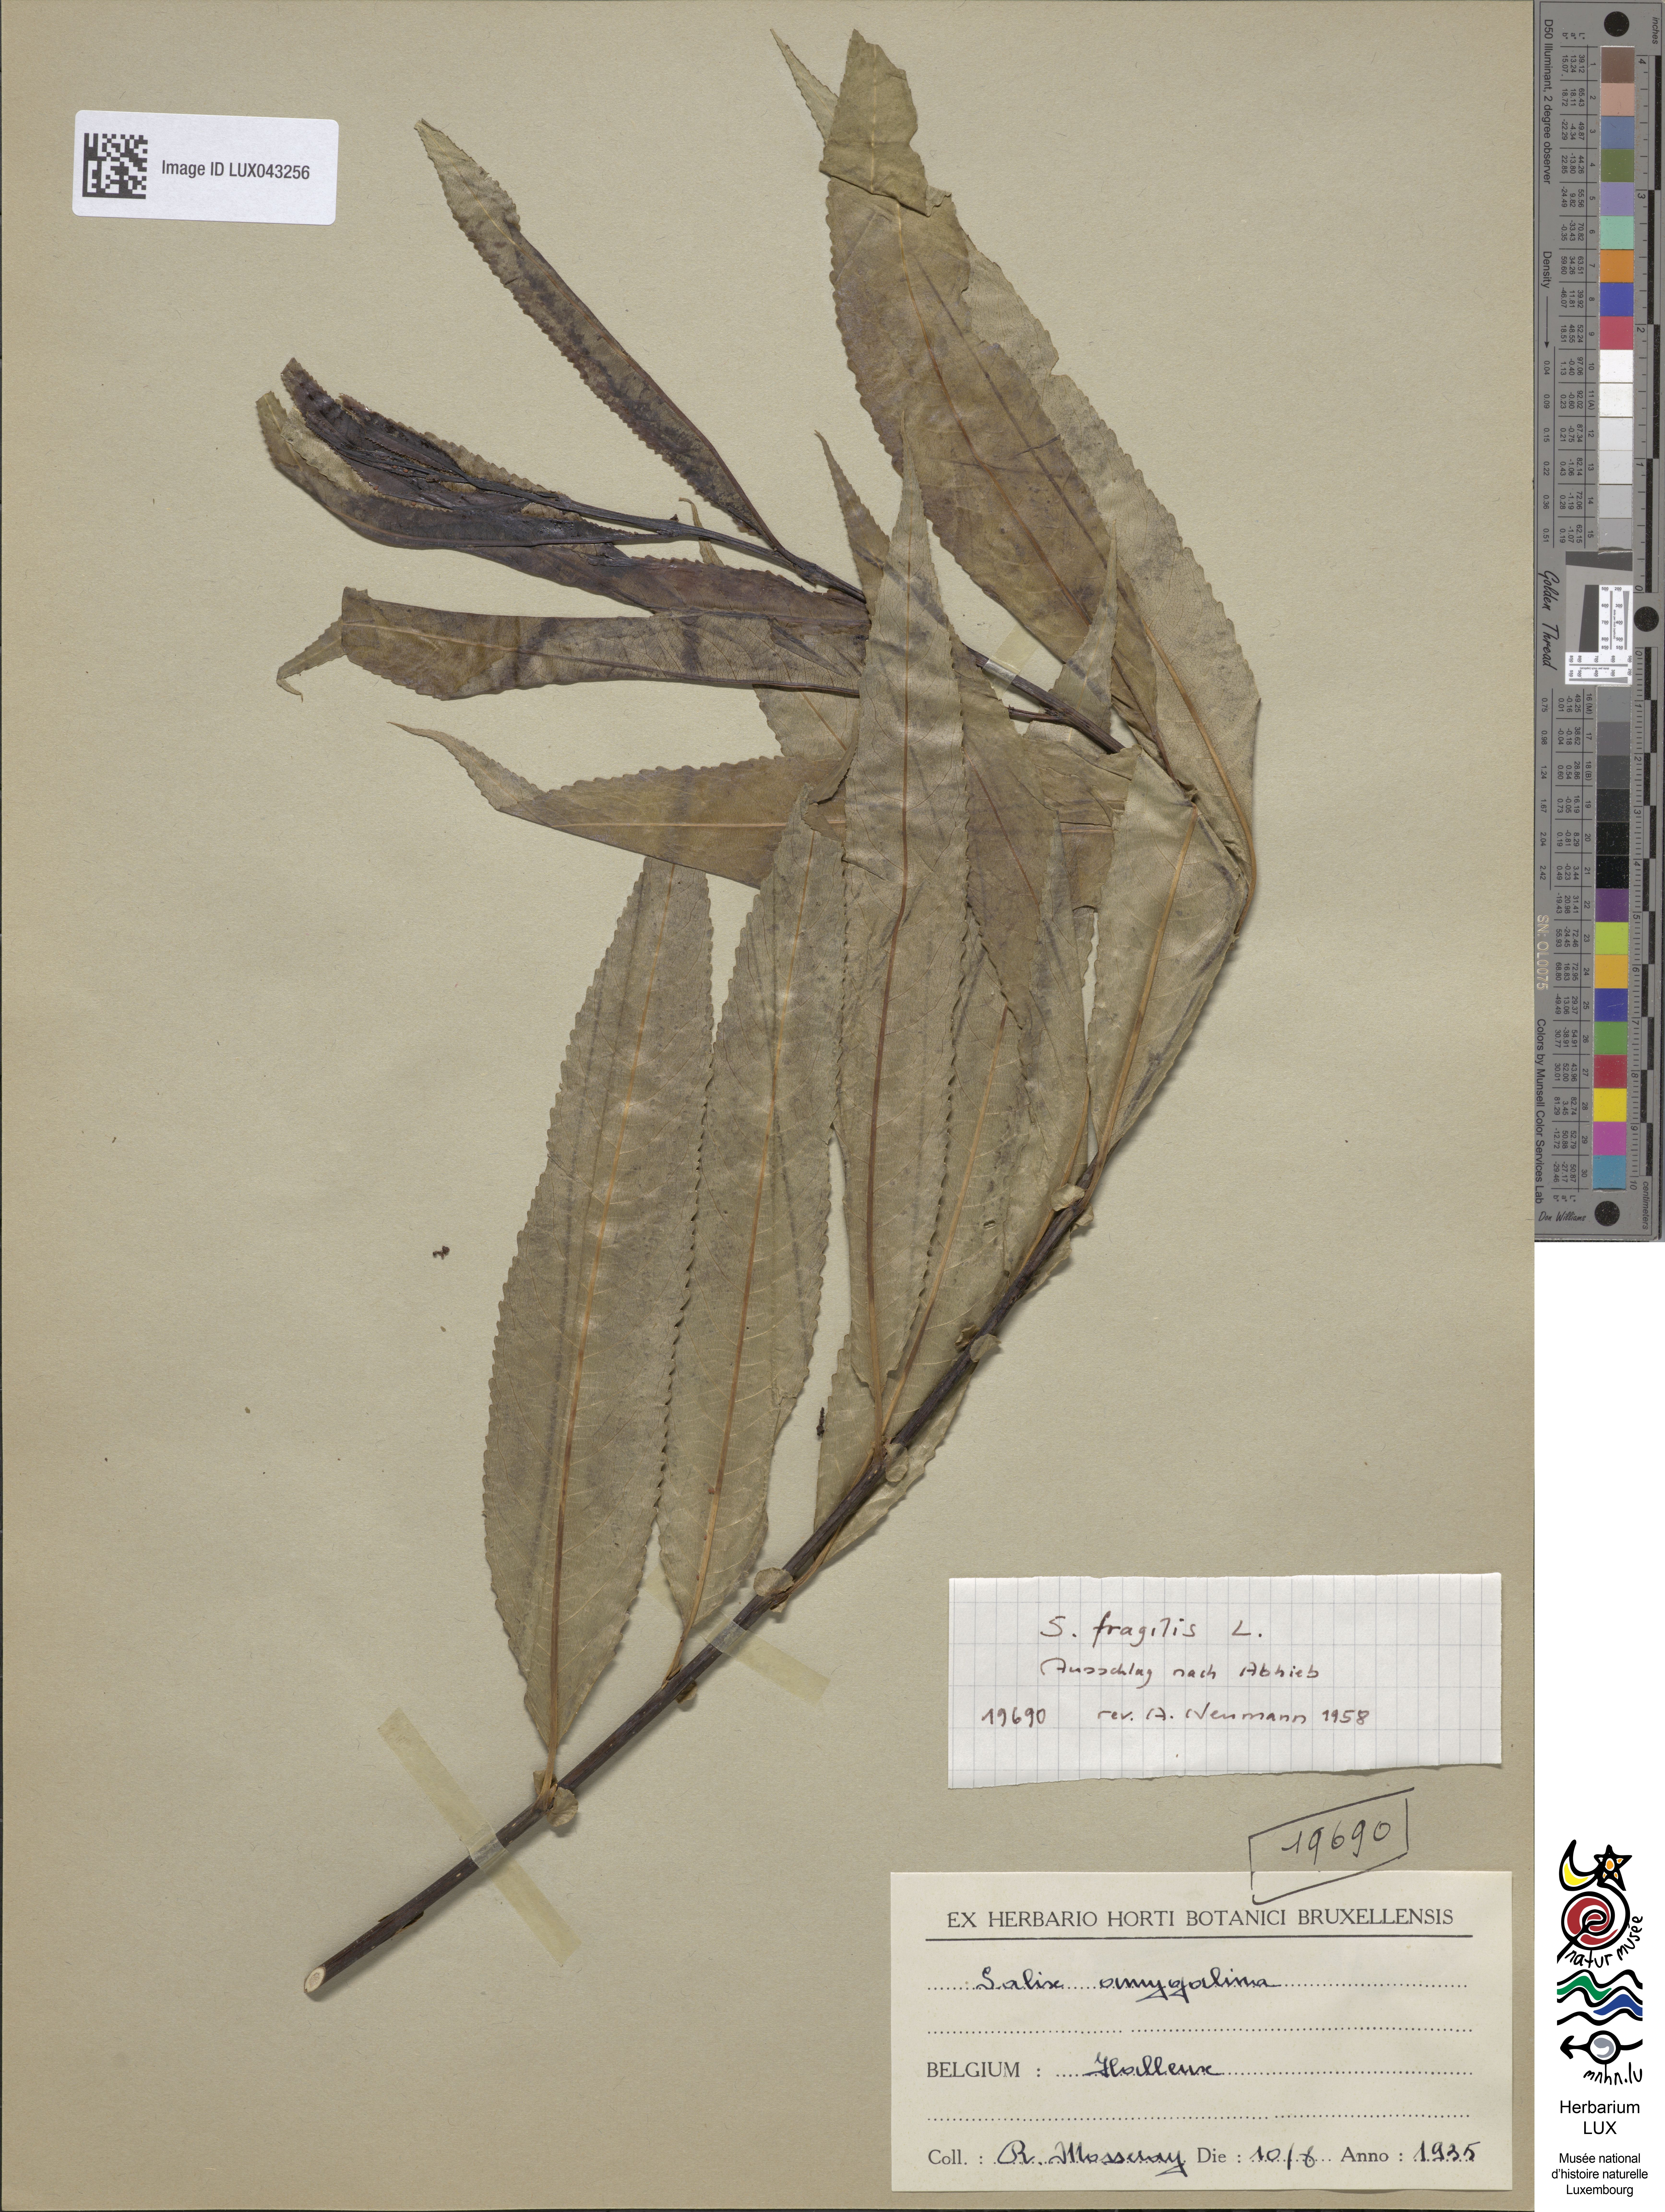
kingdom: Plantae
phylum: Tracheophyta
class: Magnoliopsida
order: Malpighiales
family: Salicaceae
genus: Salix
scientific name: Salix fragilis
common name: Crack willow
